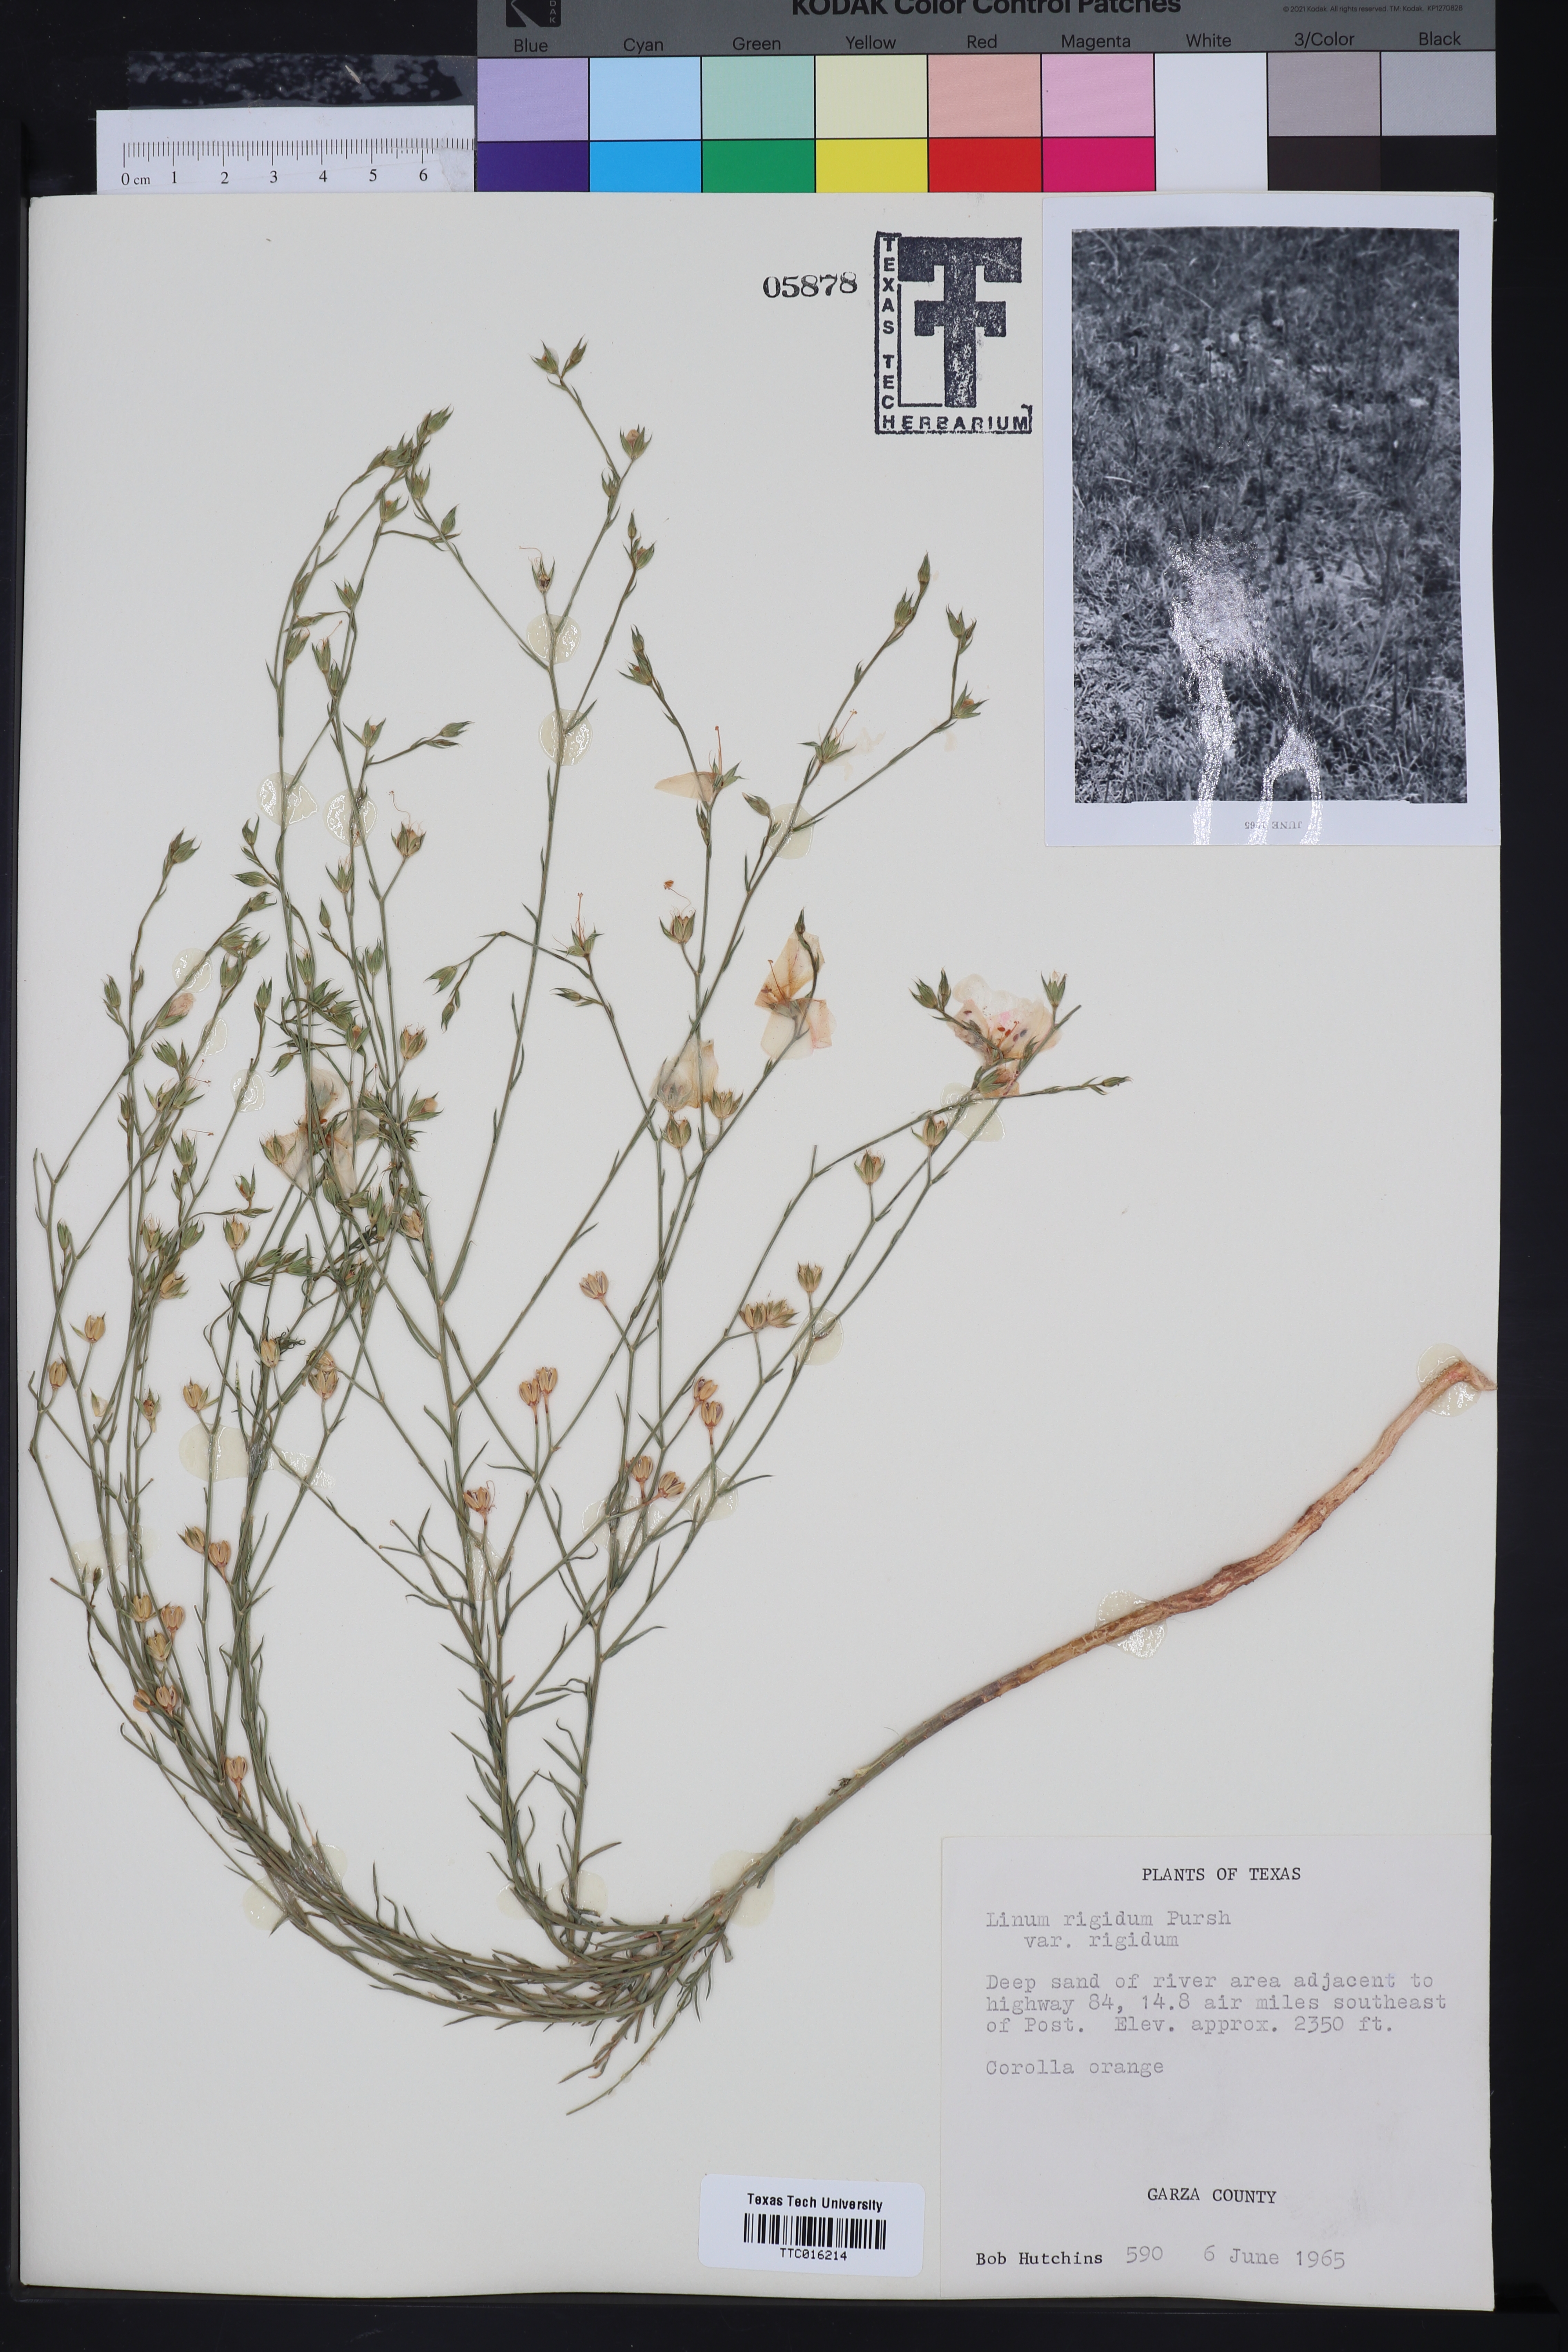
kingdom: Plantae
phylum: Tracheophyta
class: Magnoliopsida
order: Malpighiales
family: Linaceae
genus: Linum
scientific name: Linum rigidum
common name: Stiff-stem flax
